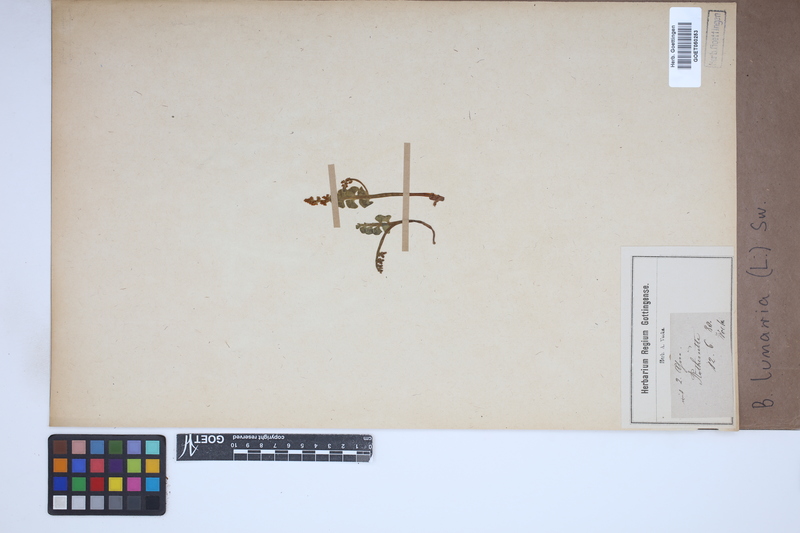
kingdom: Plantae
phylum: Tracheophyta
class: Polypodiopsida
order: Ophioglossales
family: Ophioglossaceae
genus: Botrychium
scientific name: Botrychium lunaria
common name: Moonwort
